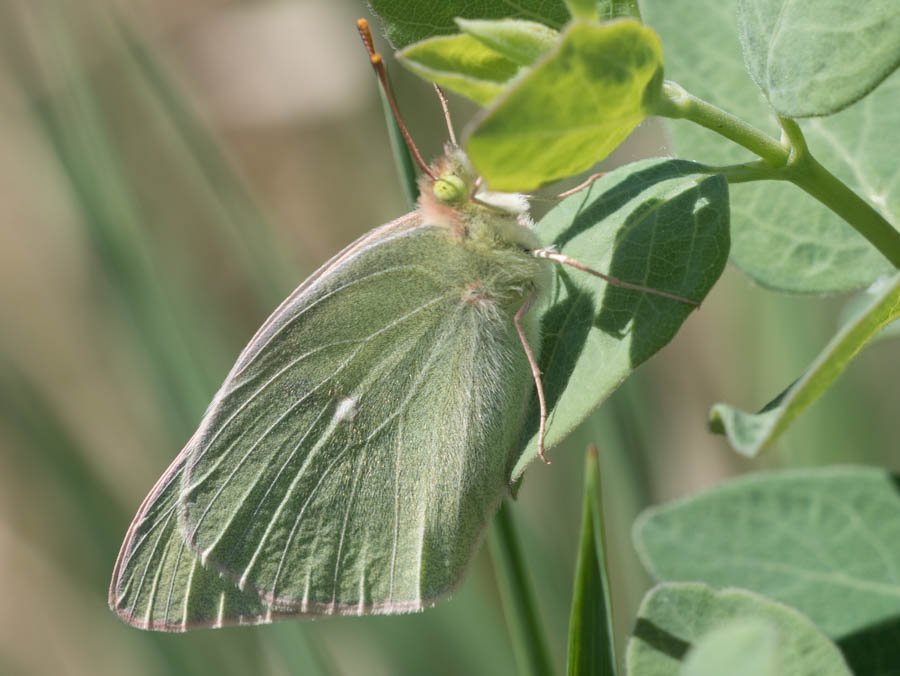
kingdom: Animalia
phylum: Arthropoda
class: Insecta
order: Lepidoptera
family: Pieridae
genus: Colias
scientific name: Colias alexandra
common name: Queen Alexandra's Sulphur
